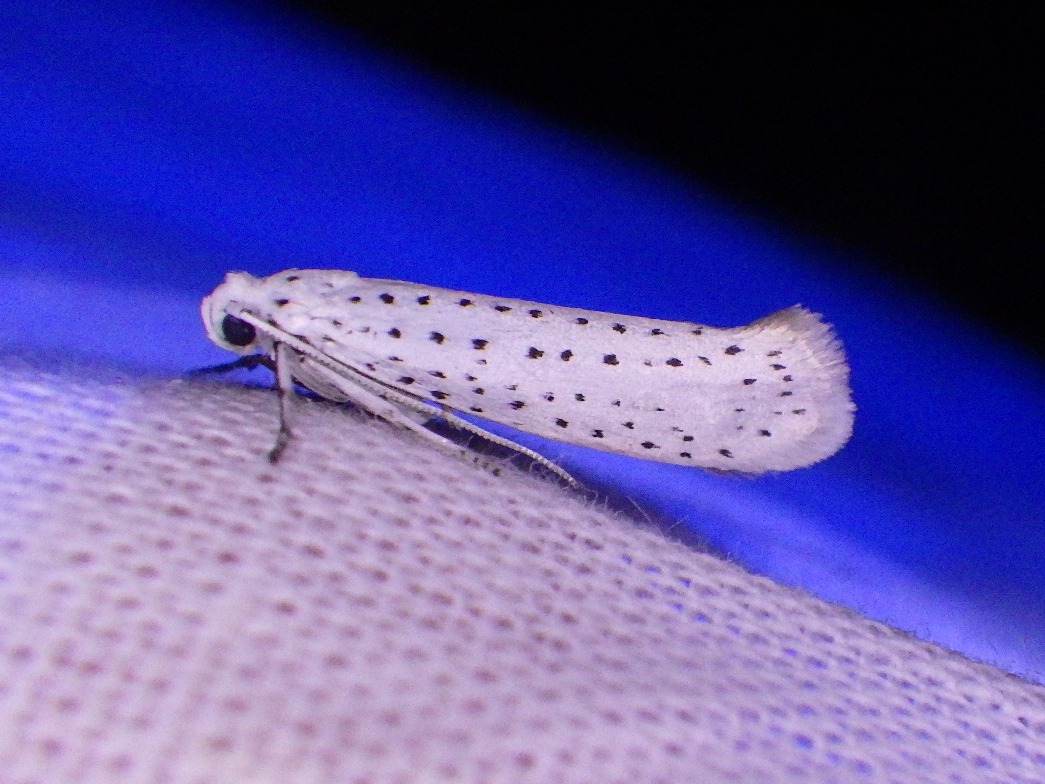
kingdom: Animalia
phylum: Arthropoda
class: Insecta
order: Lepidoptera
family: Yponomeutidae
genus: Yponomeuta
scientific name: Yponomeuta evonymella
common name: Hægspindemøl
